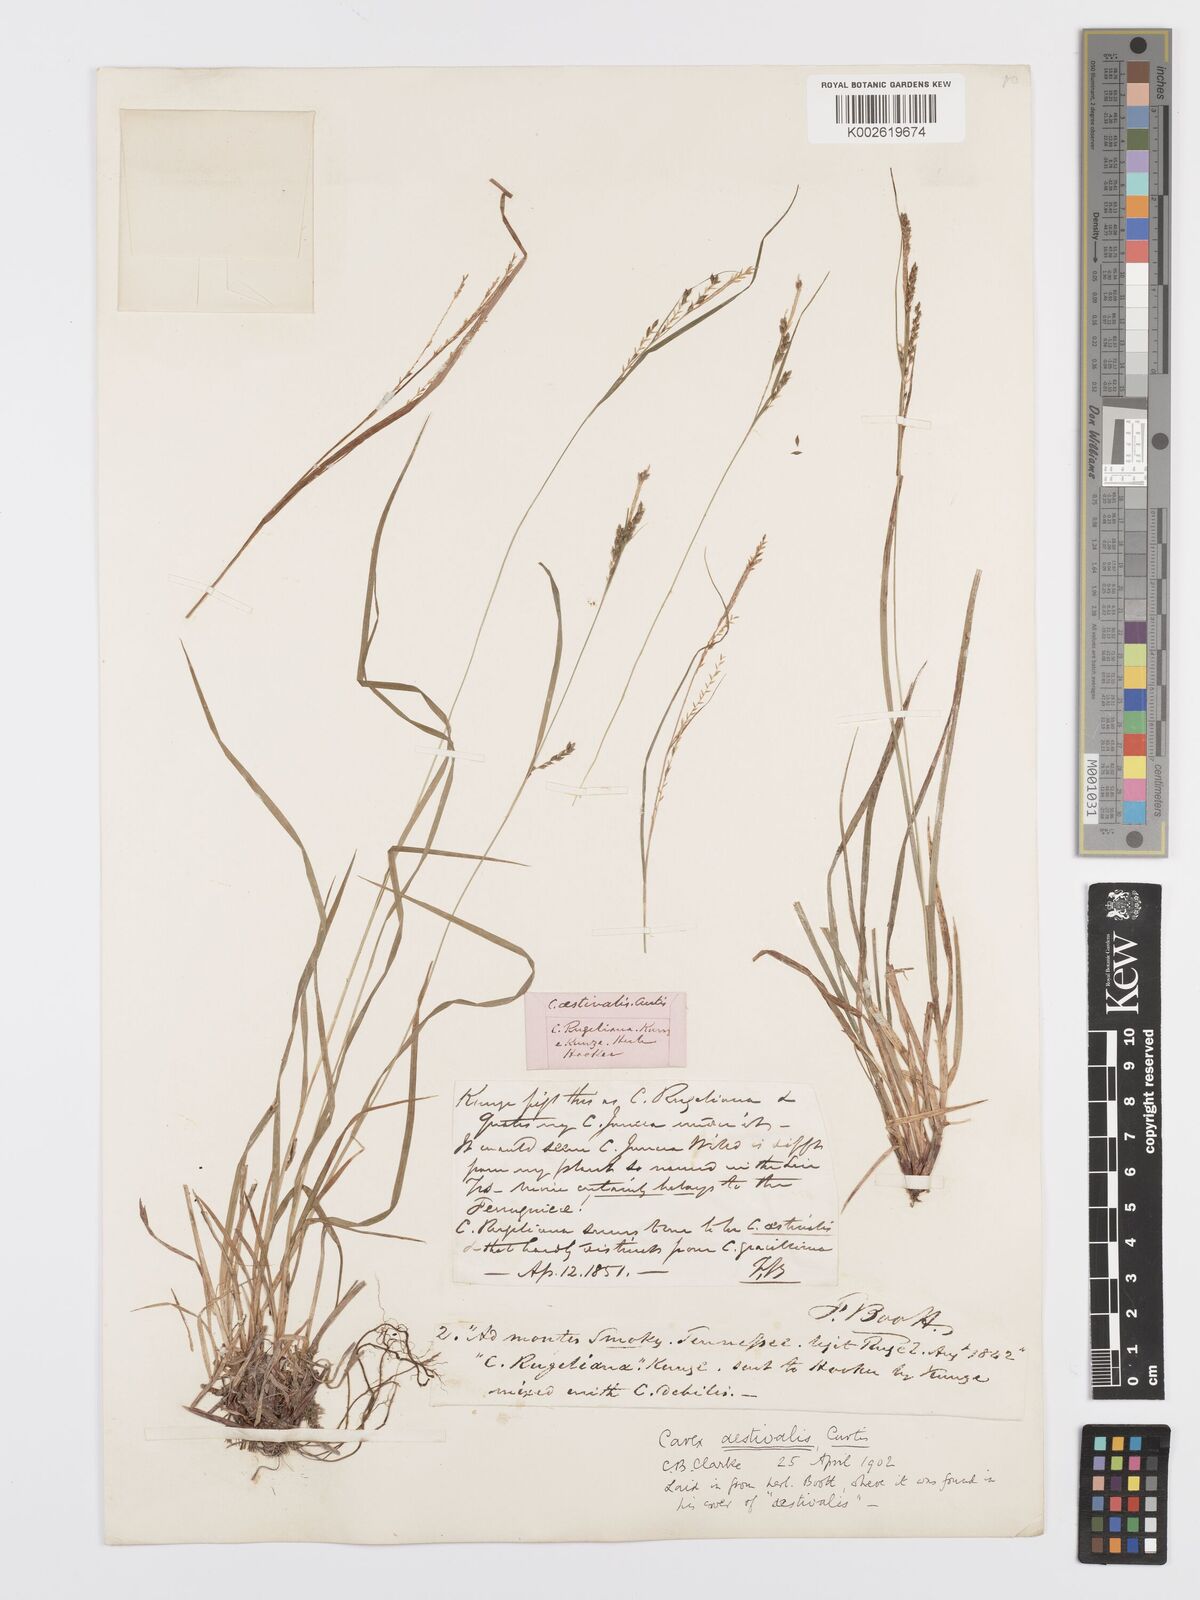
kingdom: Plantae
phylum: Tracheophyta
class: Liliopsida
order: Poales
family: Cyperaceae
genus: Carex
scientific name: Carex aestivalis
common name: Summer sedge
